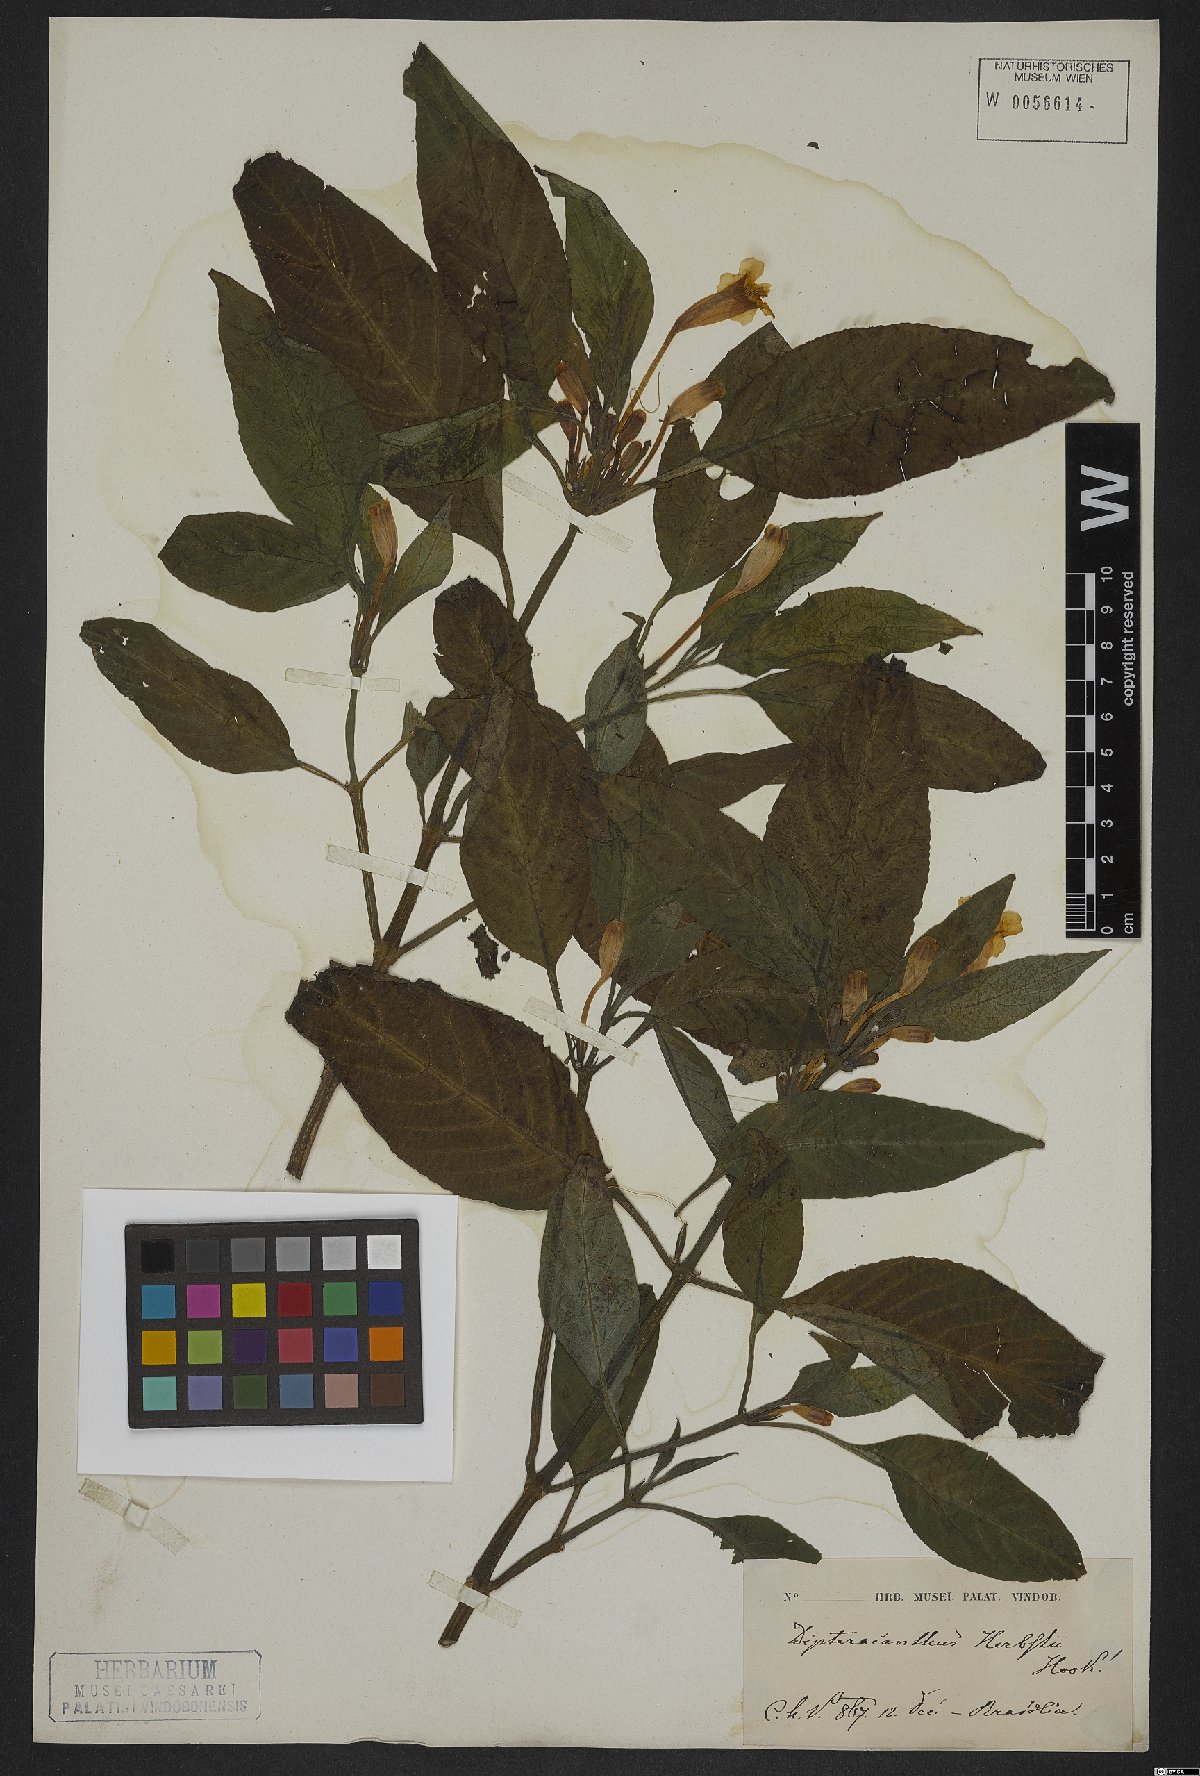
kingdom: Plantae
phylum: Tracheophyta
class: Magnoliopsida
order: Lamiales
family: Acanthaceae
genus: Ruellia
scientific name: Ruellia herbstii
